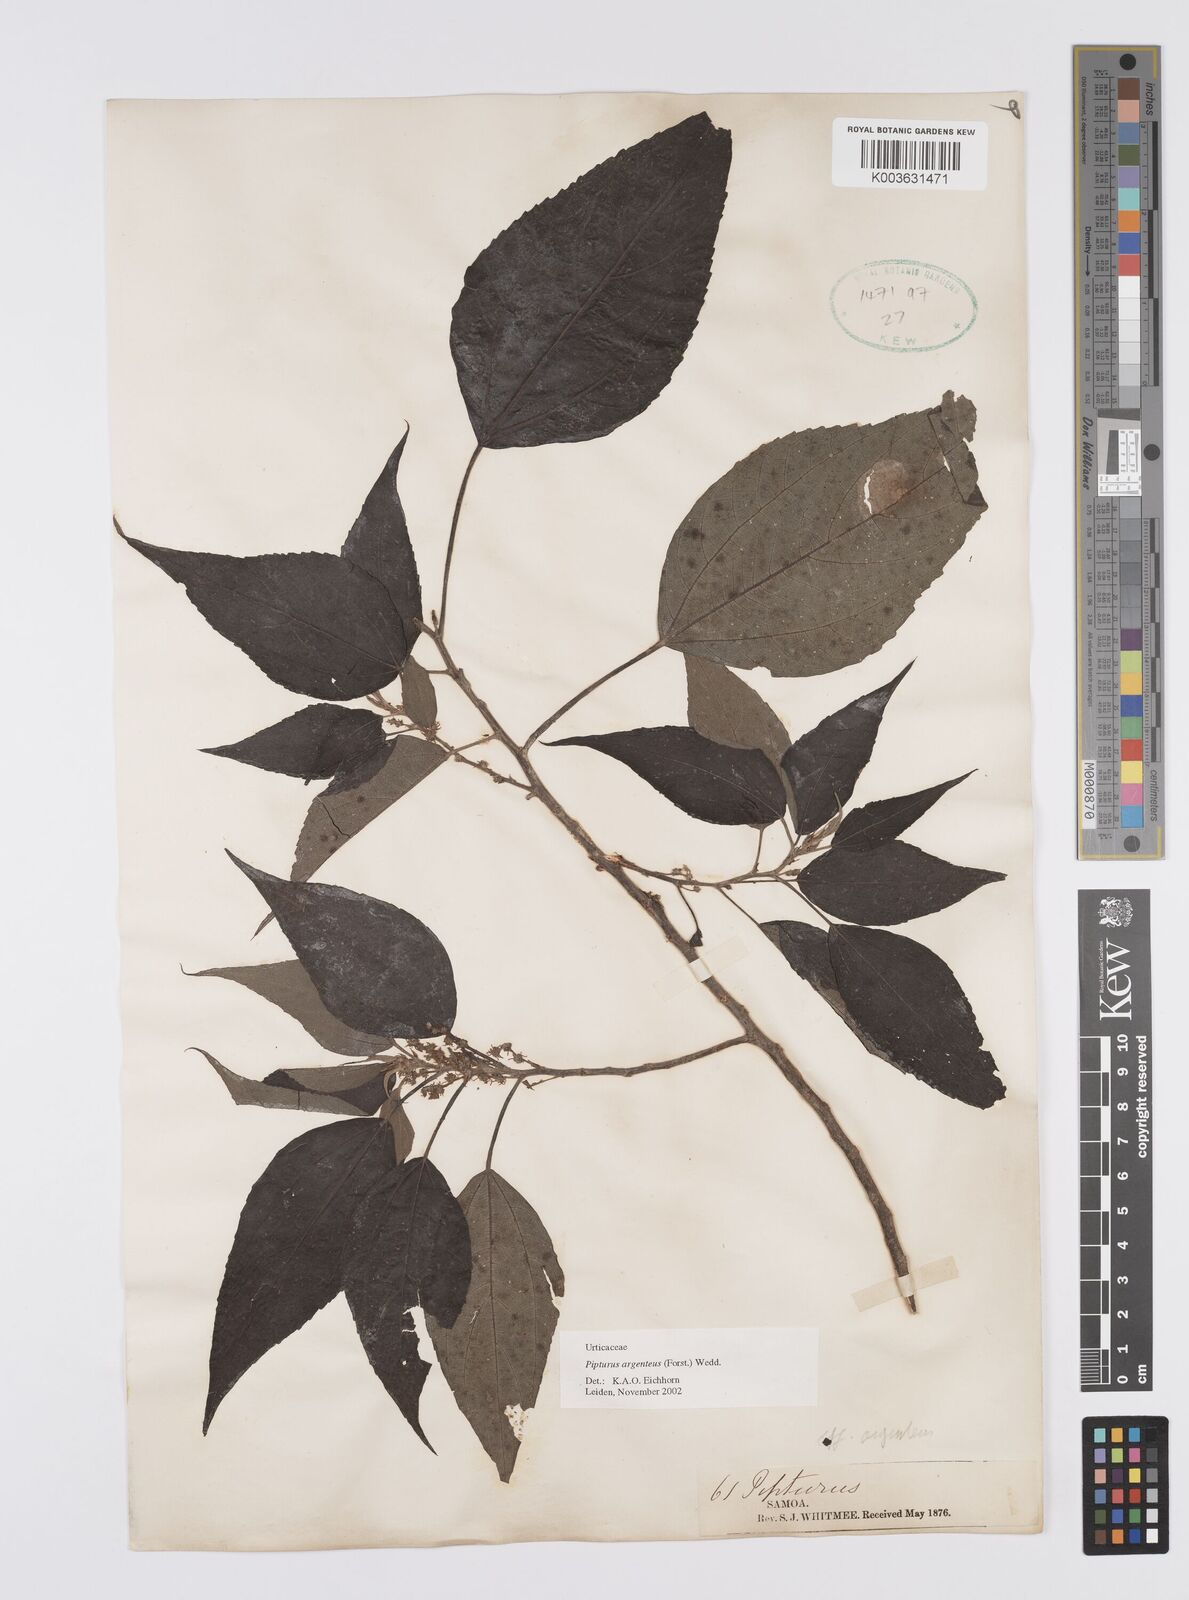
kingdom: Plantae
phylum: Tracheophyta
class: Magnoliopsida
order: Rosales
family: Urticaceae
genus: Pipturus
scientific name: Pipturus argenteus
